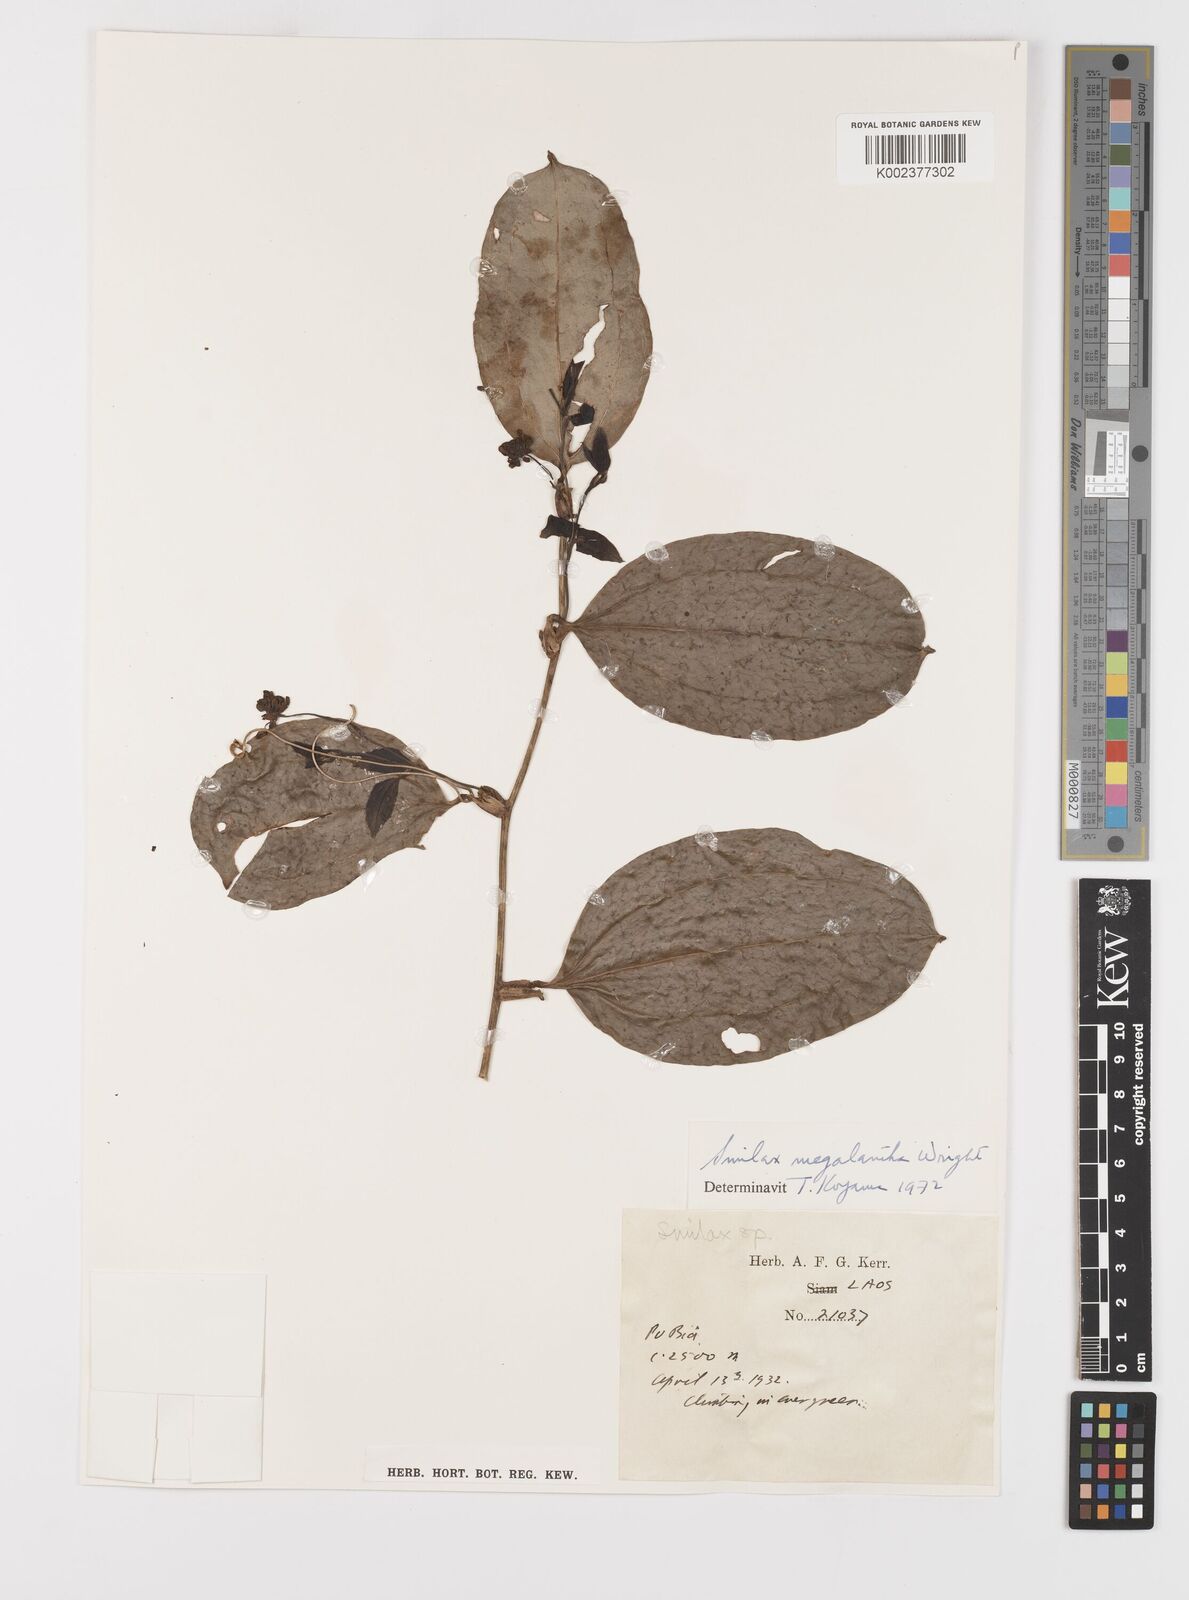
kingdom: Plantae
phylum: Tracheophyta
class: Liliopsida
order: Liliales
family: Smilacaceae
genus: Smilax
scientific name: Smilax megalantha
